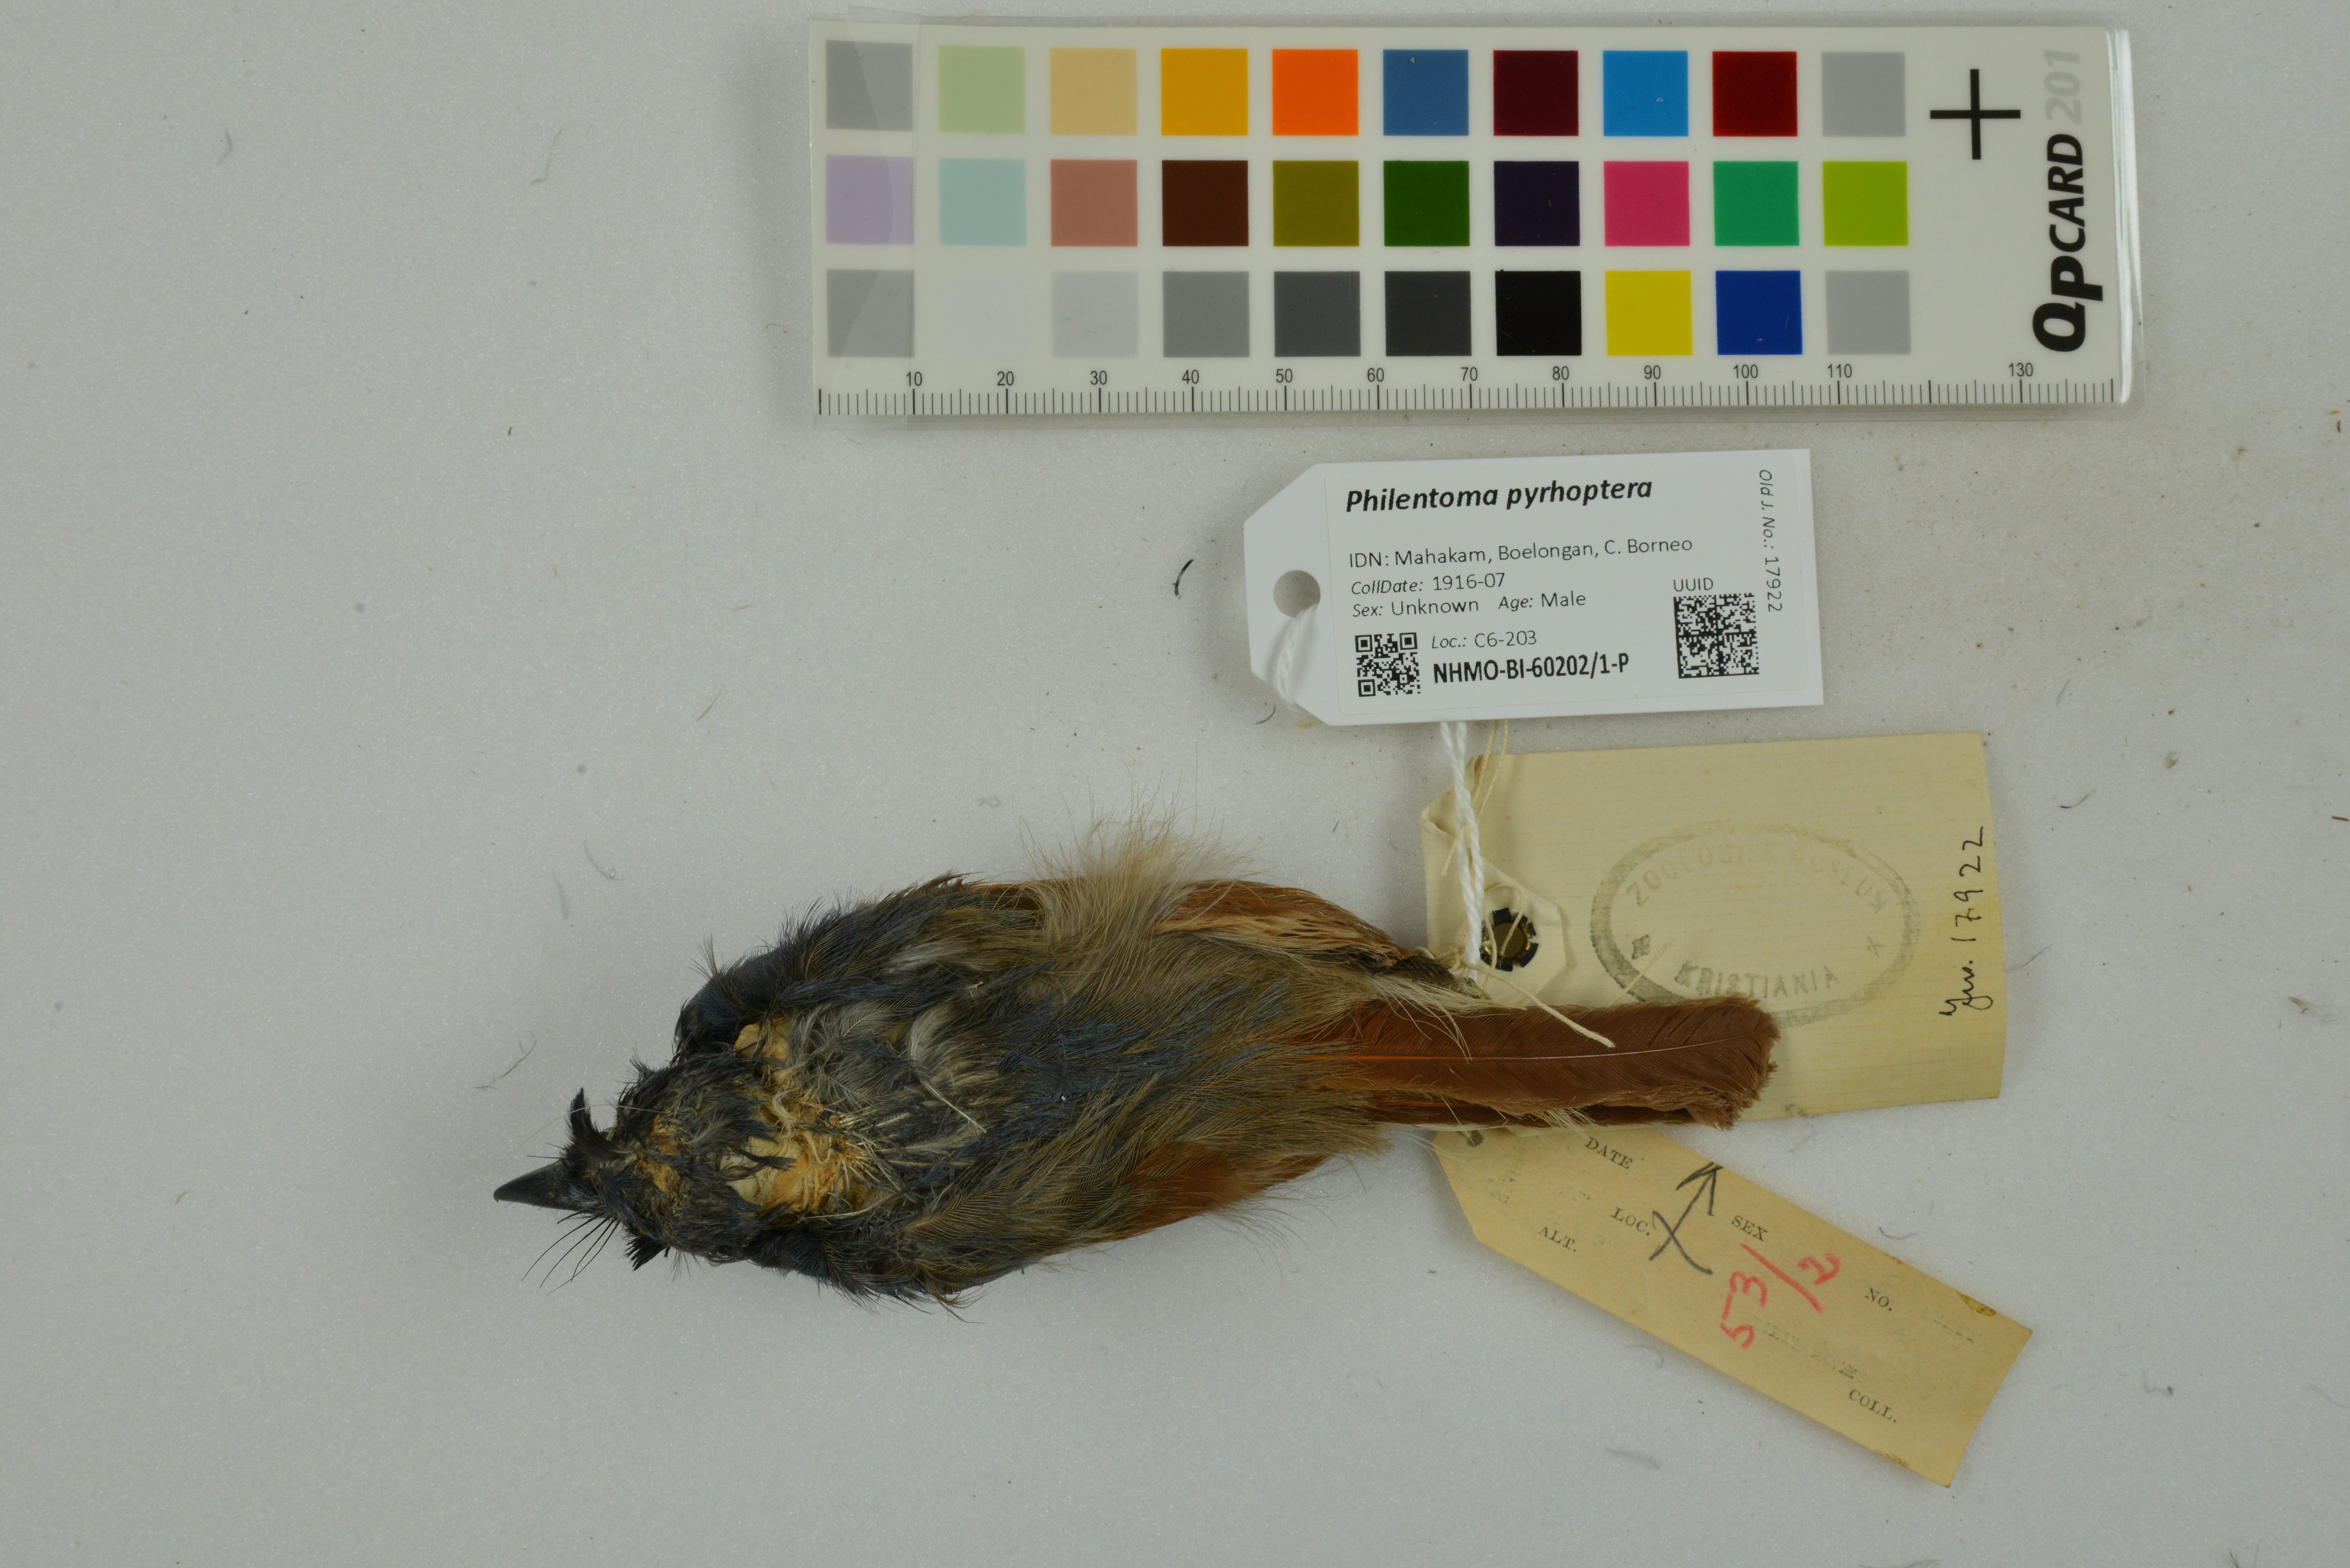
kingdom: Animalia
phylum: Chordata
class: Aves
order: Passeriformes
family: Tephrodornithidae
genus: Philentoma
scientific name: Philentoma pyrhoptera
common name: Rufous-winged philentoma
